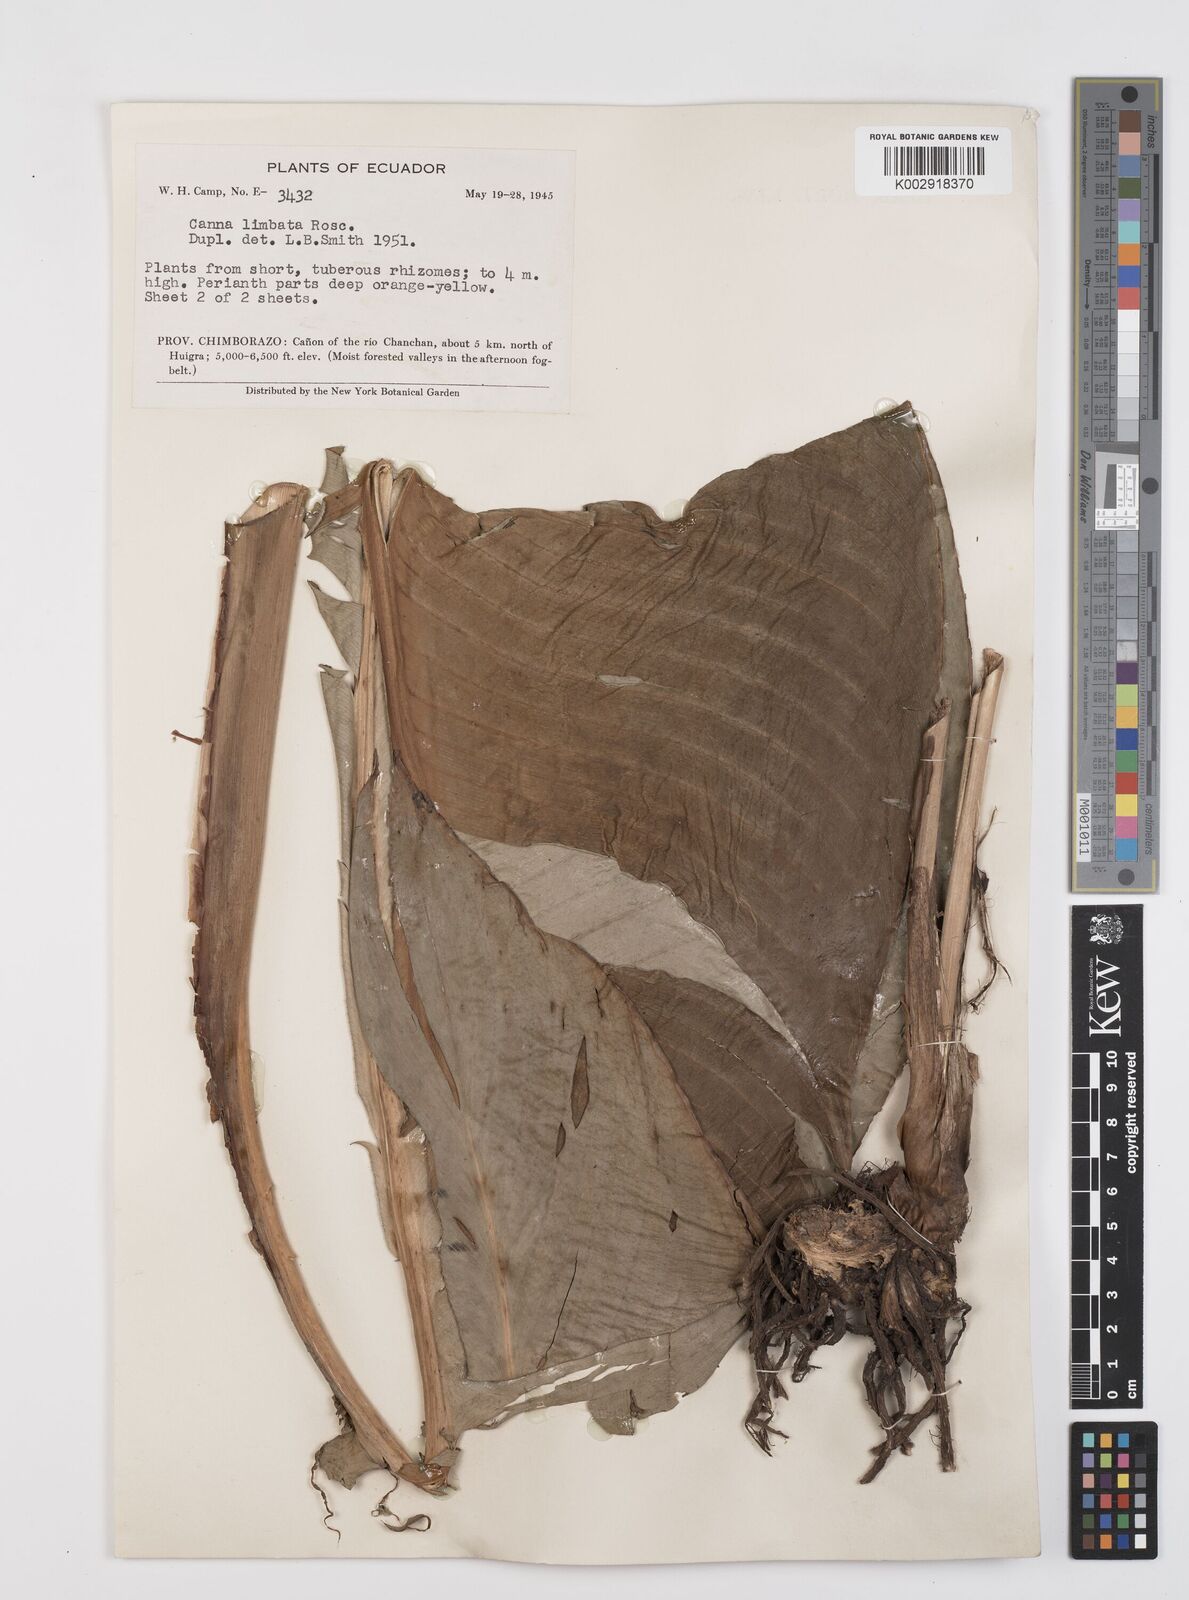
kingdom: Plantae
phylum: Tracheophyta
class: Liliopsida
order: Zingiberales
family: Cannaceae
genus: Canna
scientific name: Canna jaegeriana
